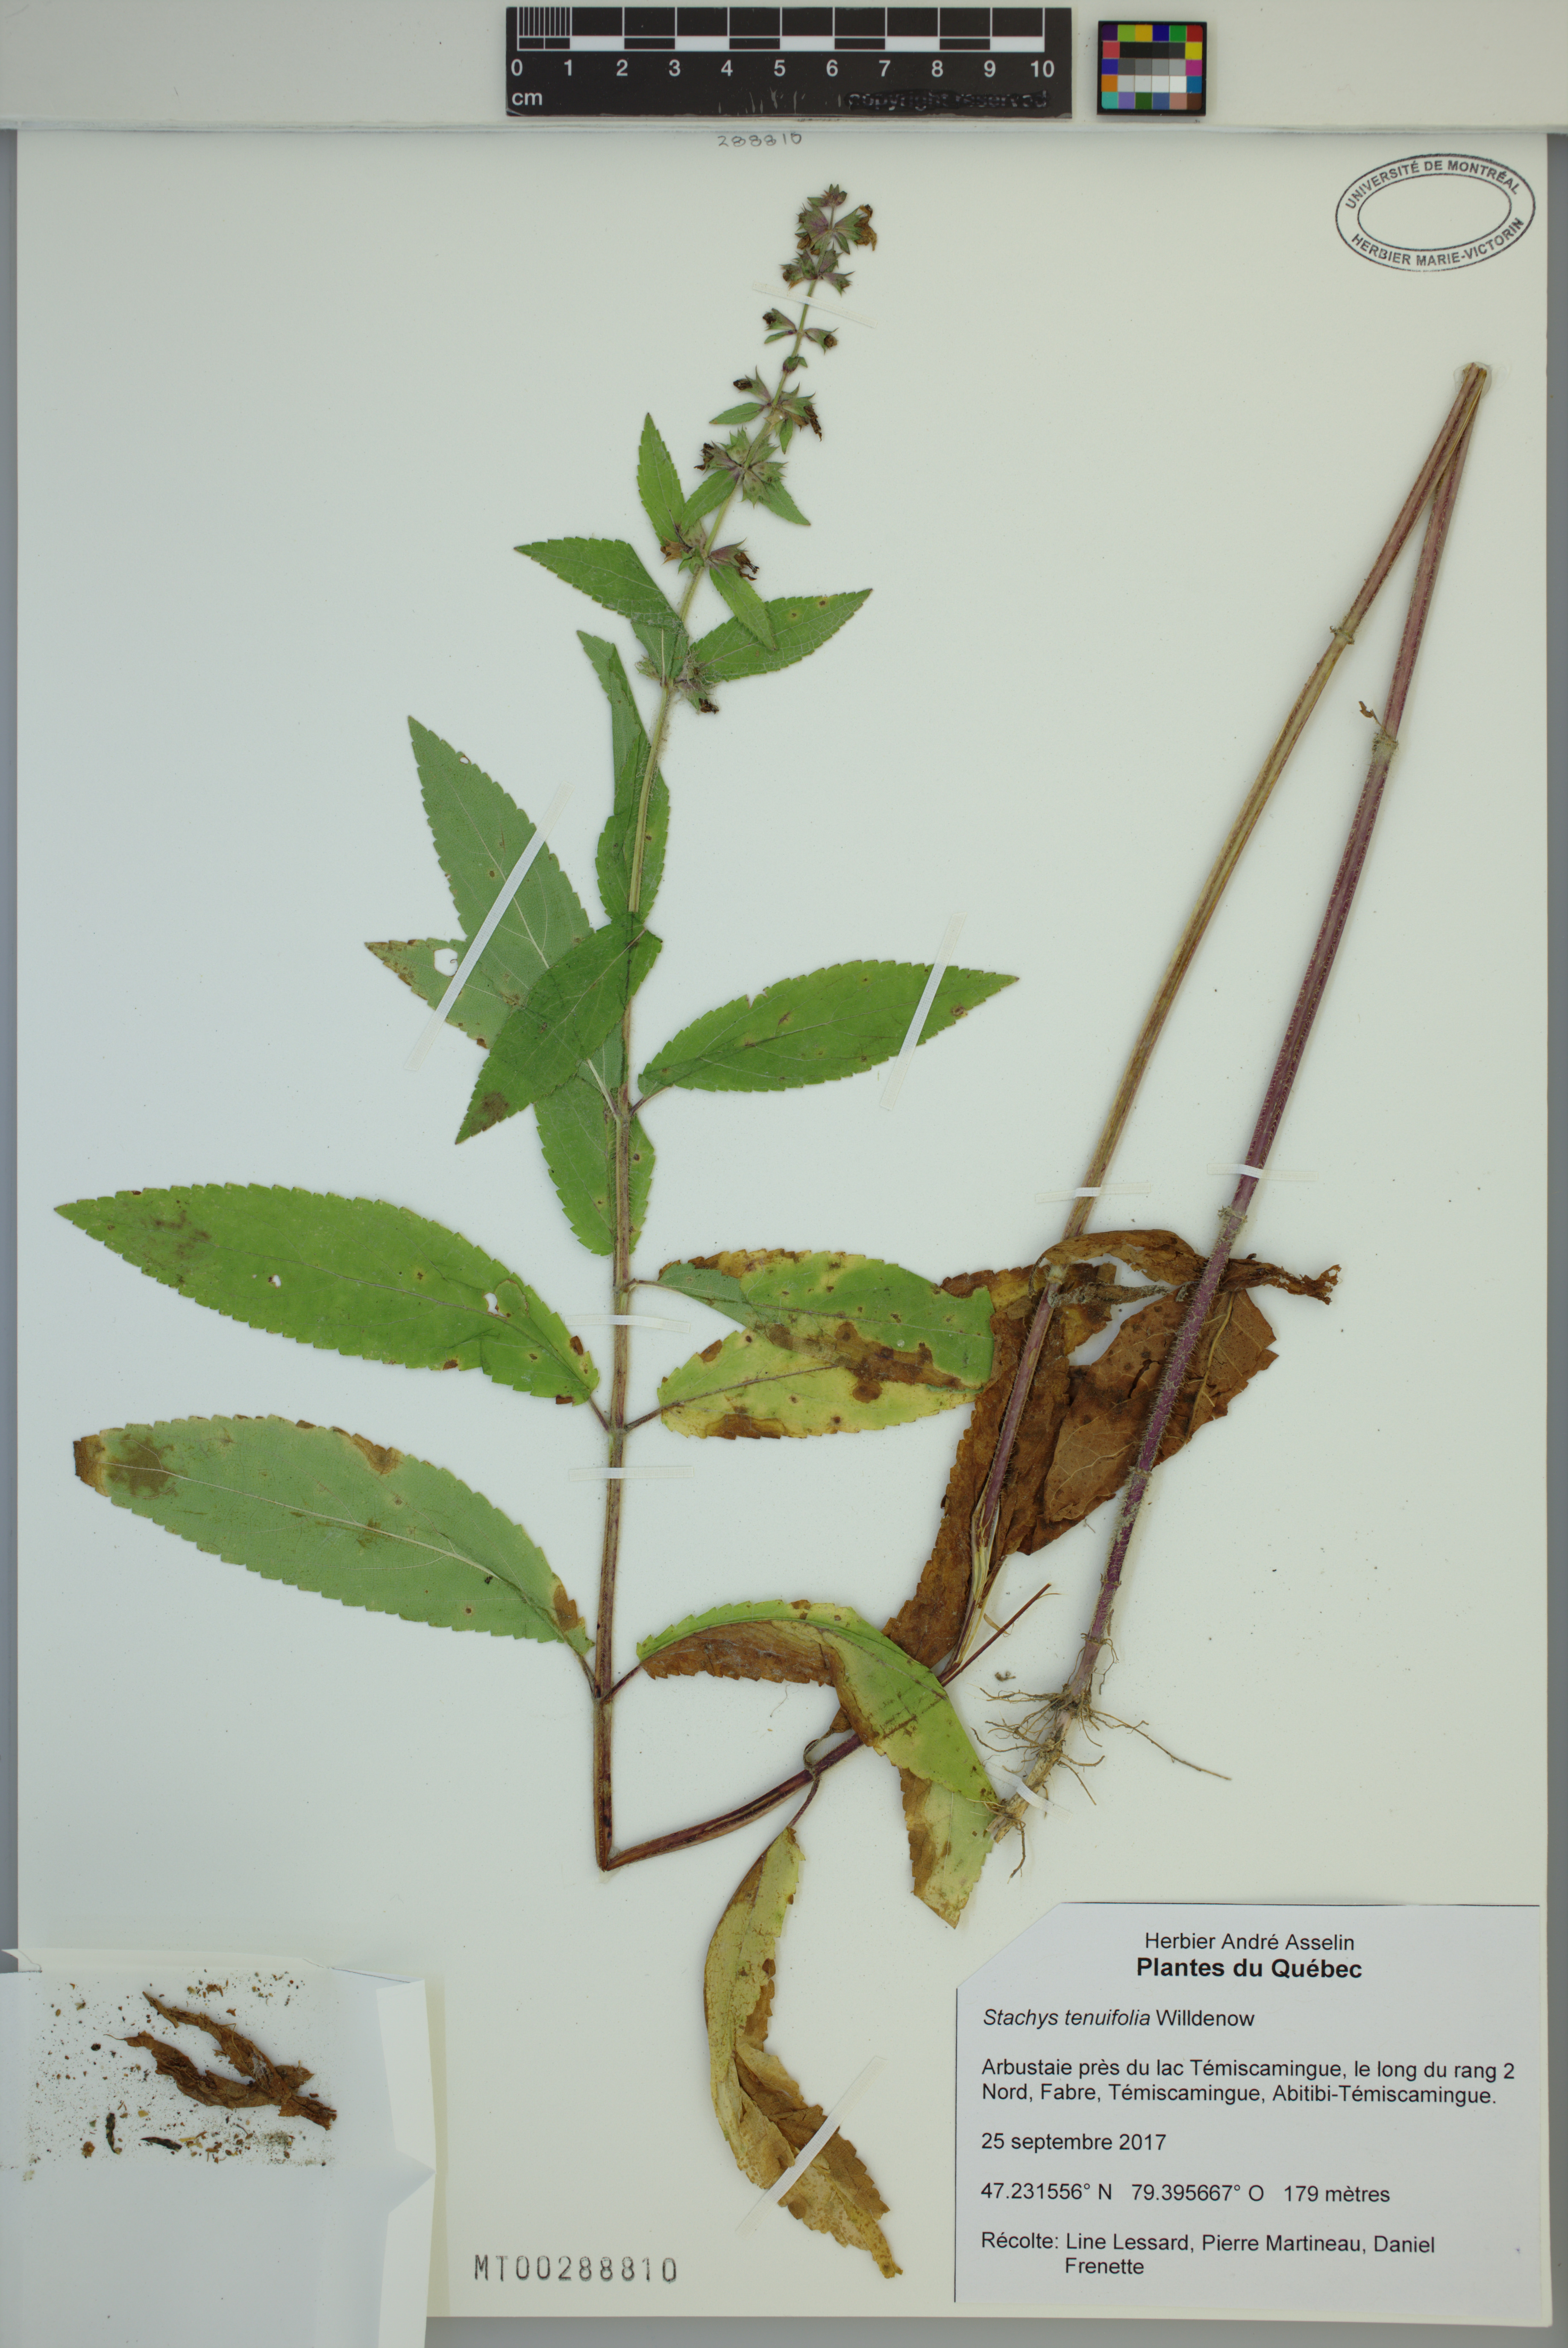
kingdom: Plantae
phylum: Tracheophyta
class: Magnoliopsida
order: Lamiales
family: Lamiaceae
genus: Stachys
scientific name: Stachys tenuifolia
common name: Smooth hedge-nettle
